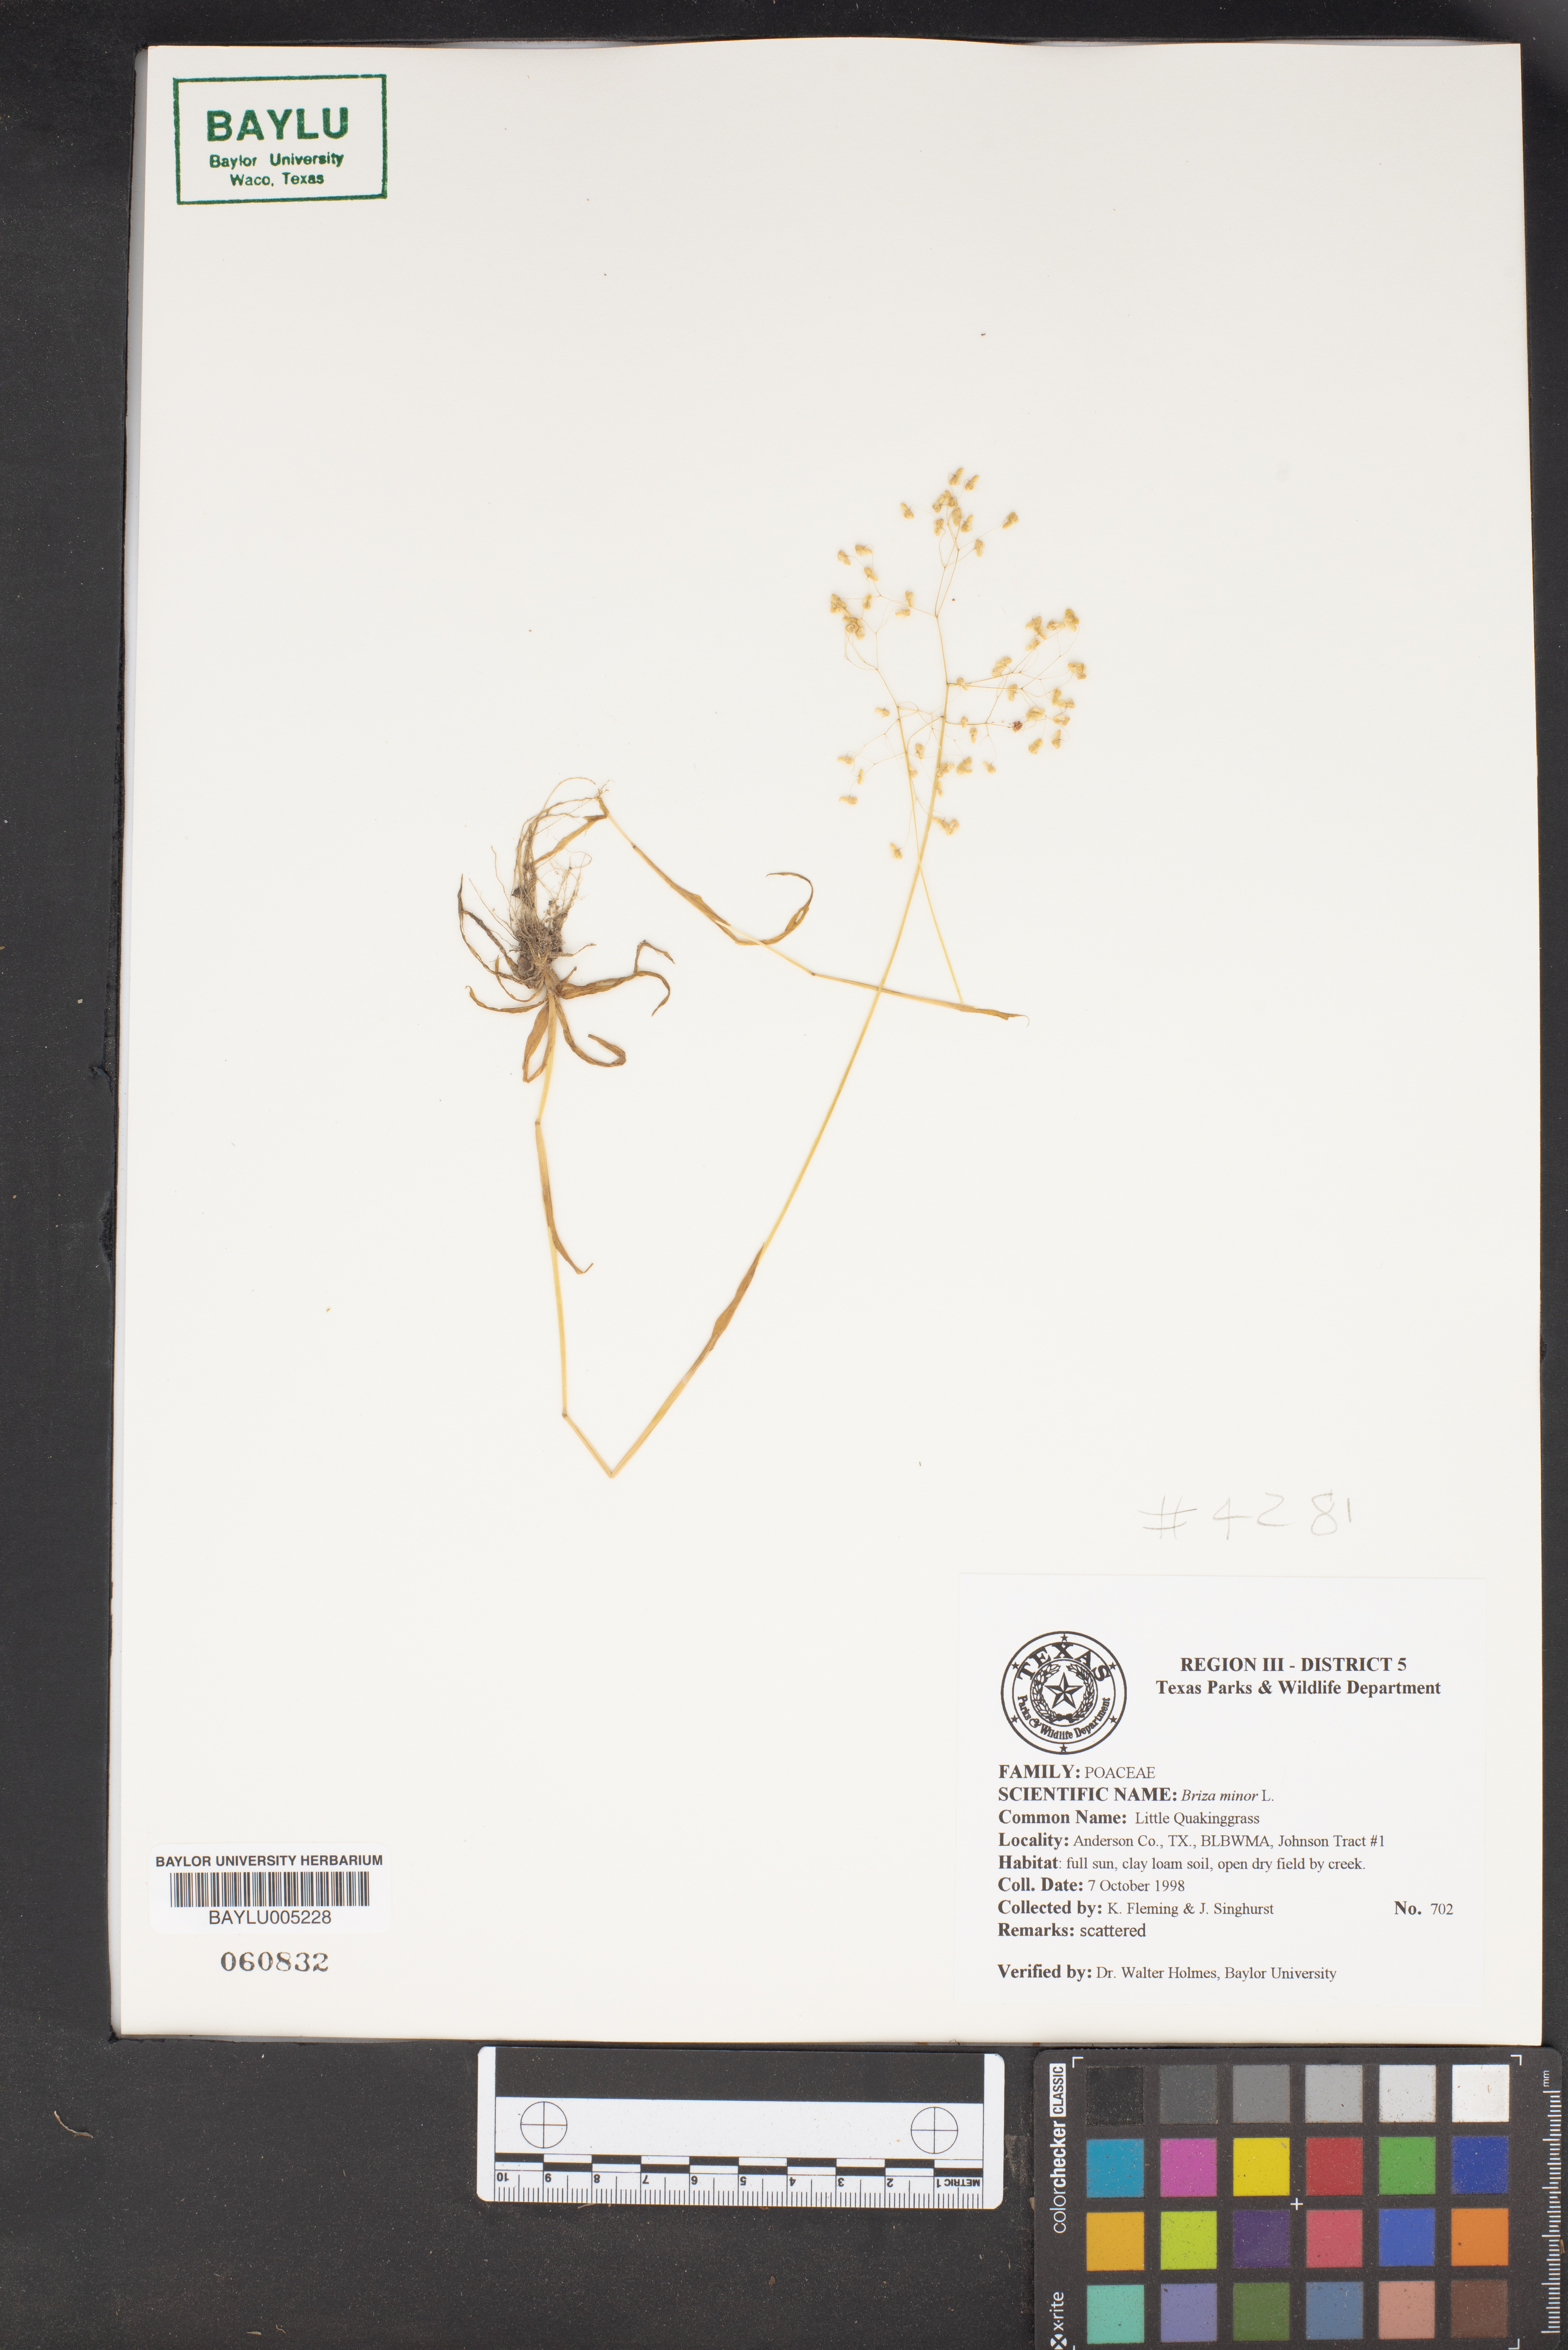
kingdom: Plantae
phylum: Tracheophyta
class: Liliopsida
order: Poales
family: Poaceae
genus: Briza
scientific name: Briza minor
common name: Lesser quaking-grass
